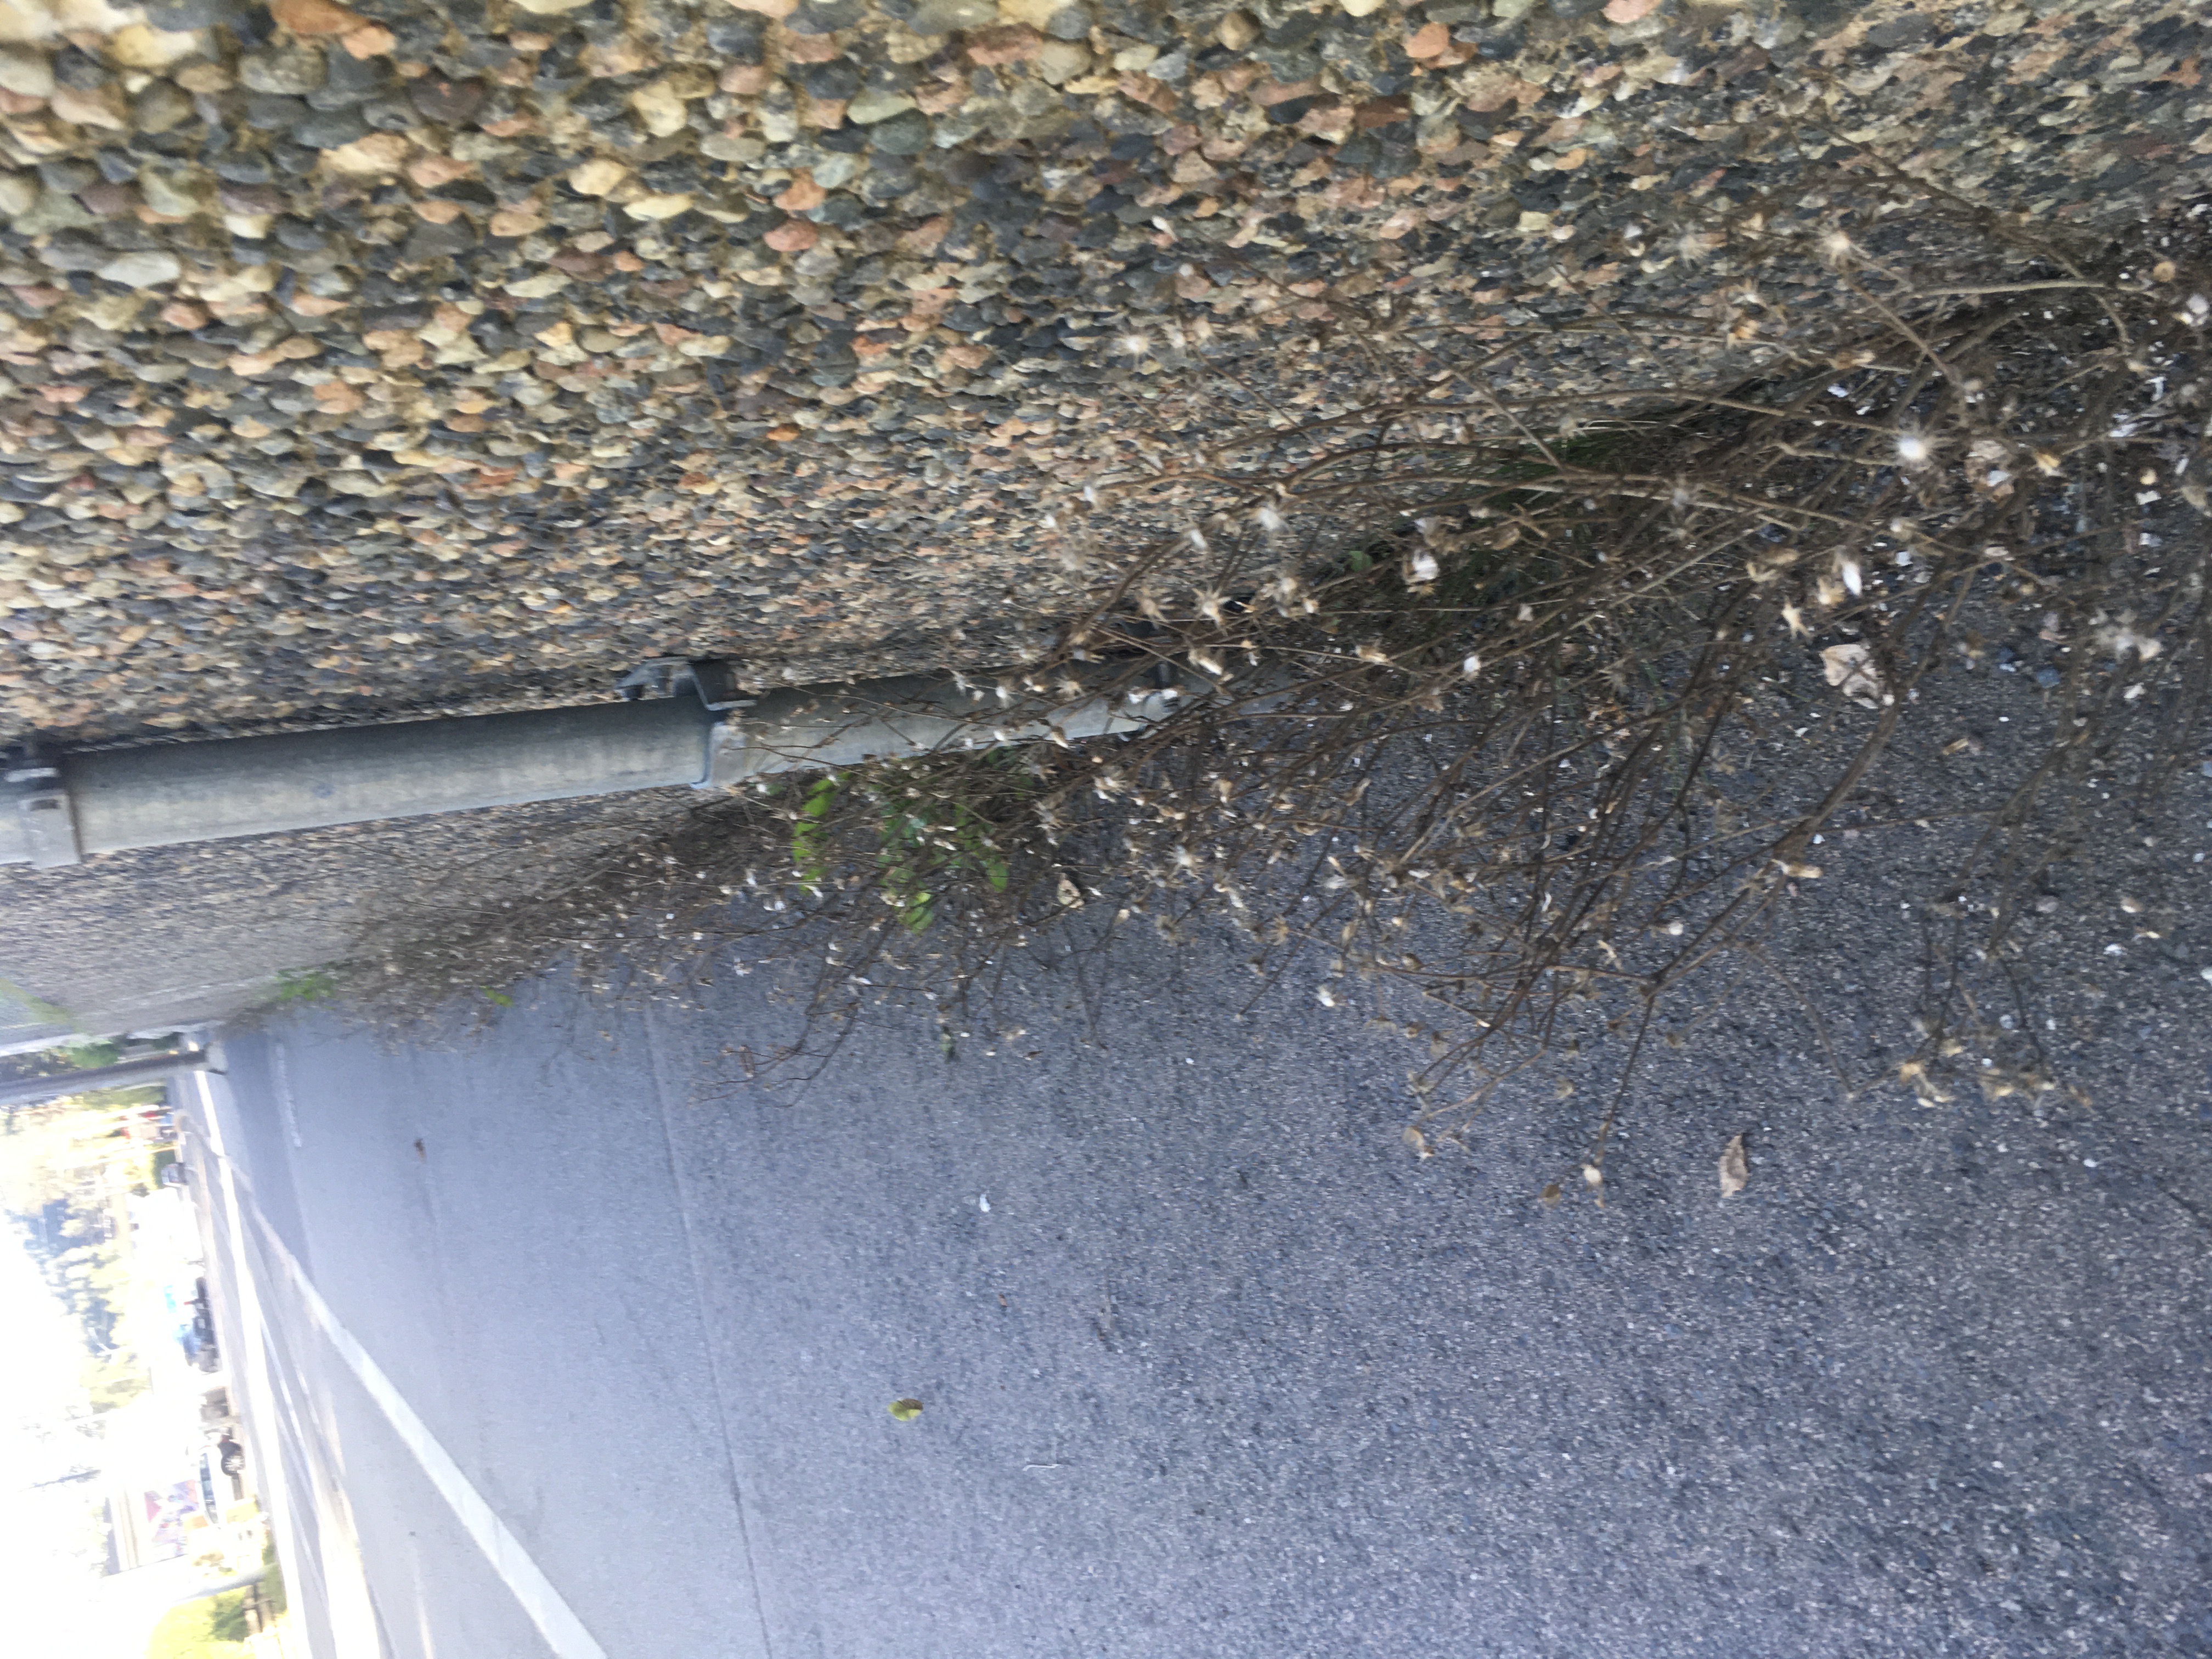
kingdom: Plantae
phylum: Tracheophyta
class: Magnoliopsida
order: Asterales
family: Asteraceae
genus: Senecio
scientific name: Senecio viscosus
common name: klistersvineblom
